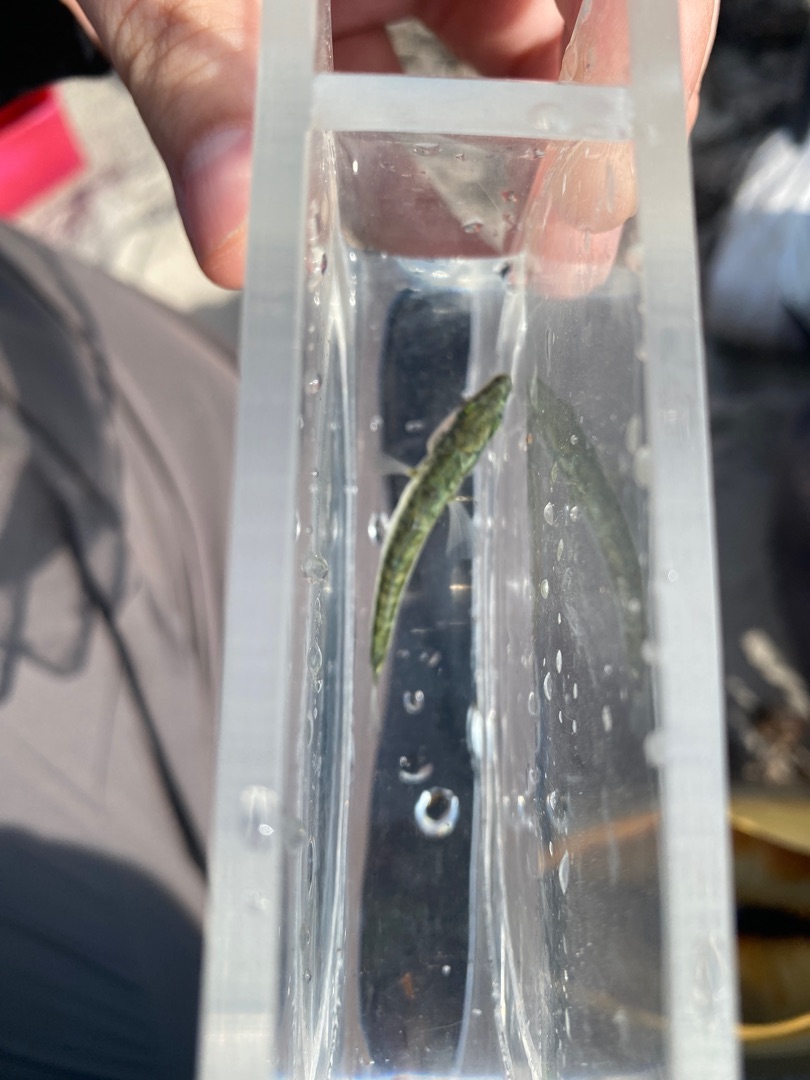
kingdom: Animalia
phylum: Chordata
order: Gasterosteiformes
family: Gasterosteidae
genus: Gasterosteus
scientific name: Gasterosteus aculeatus
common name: Trepigget hundestejle
